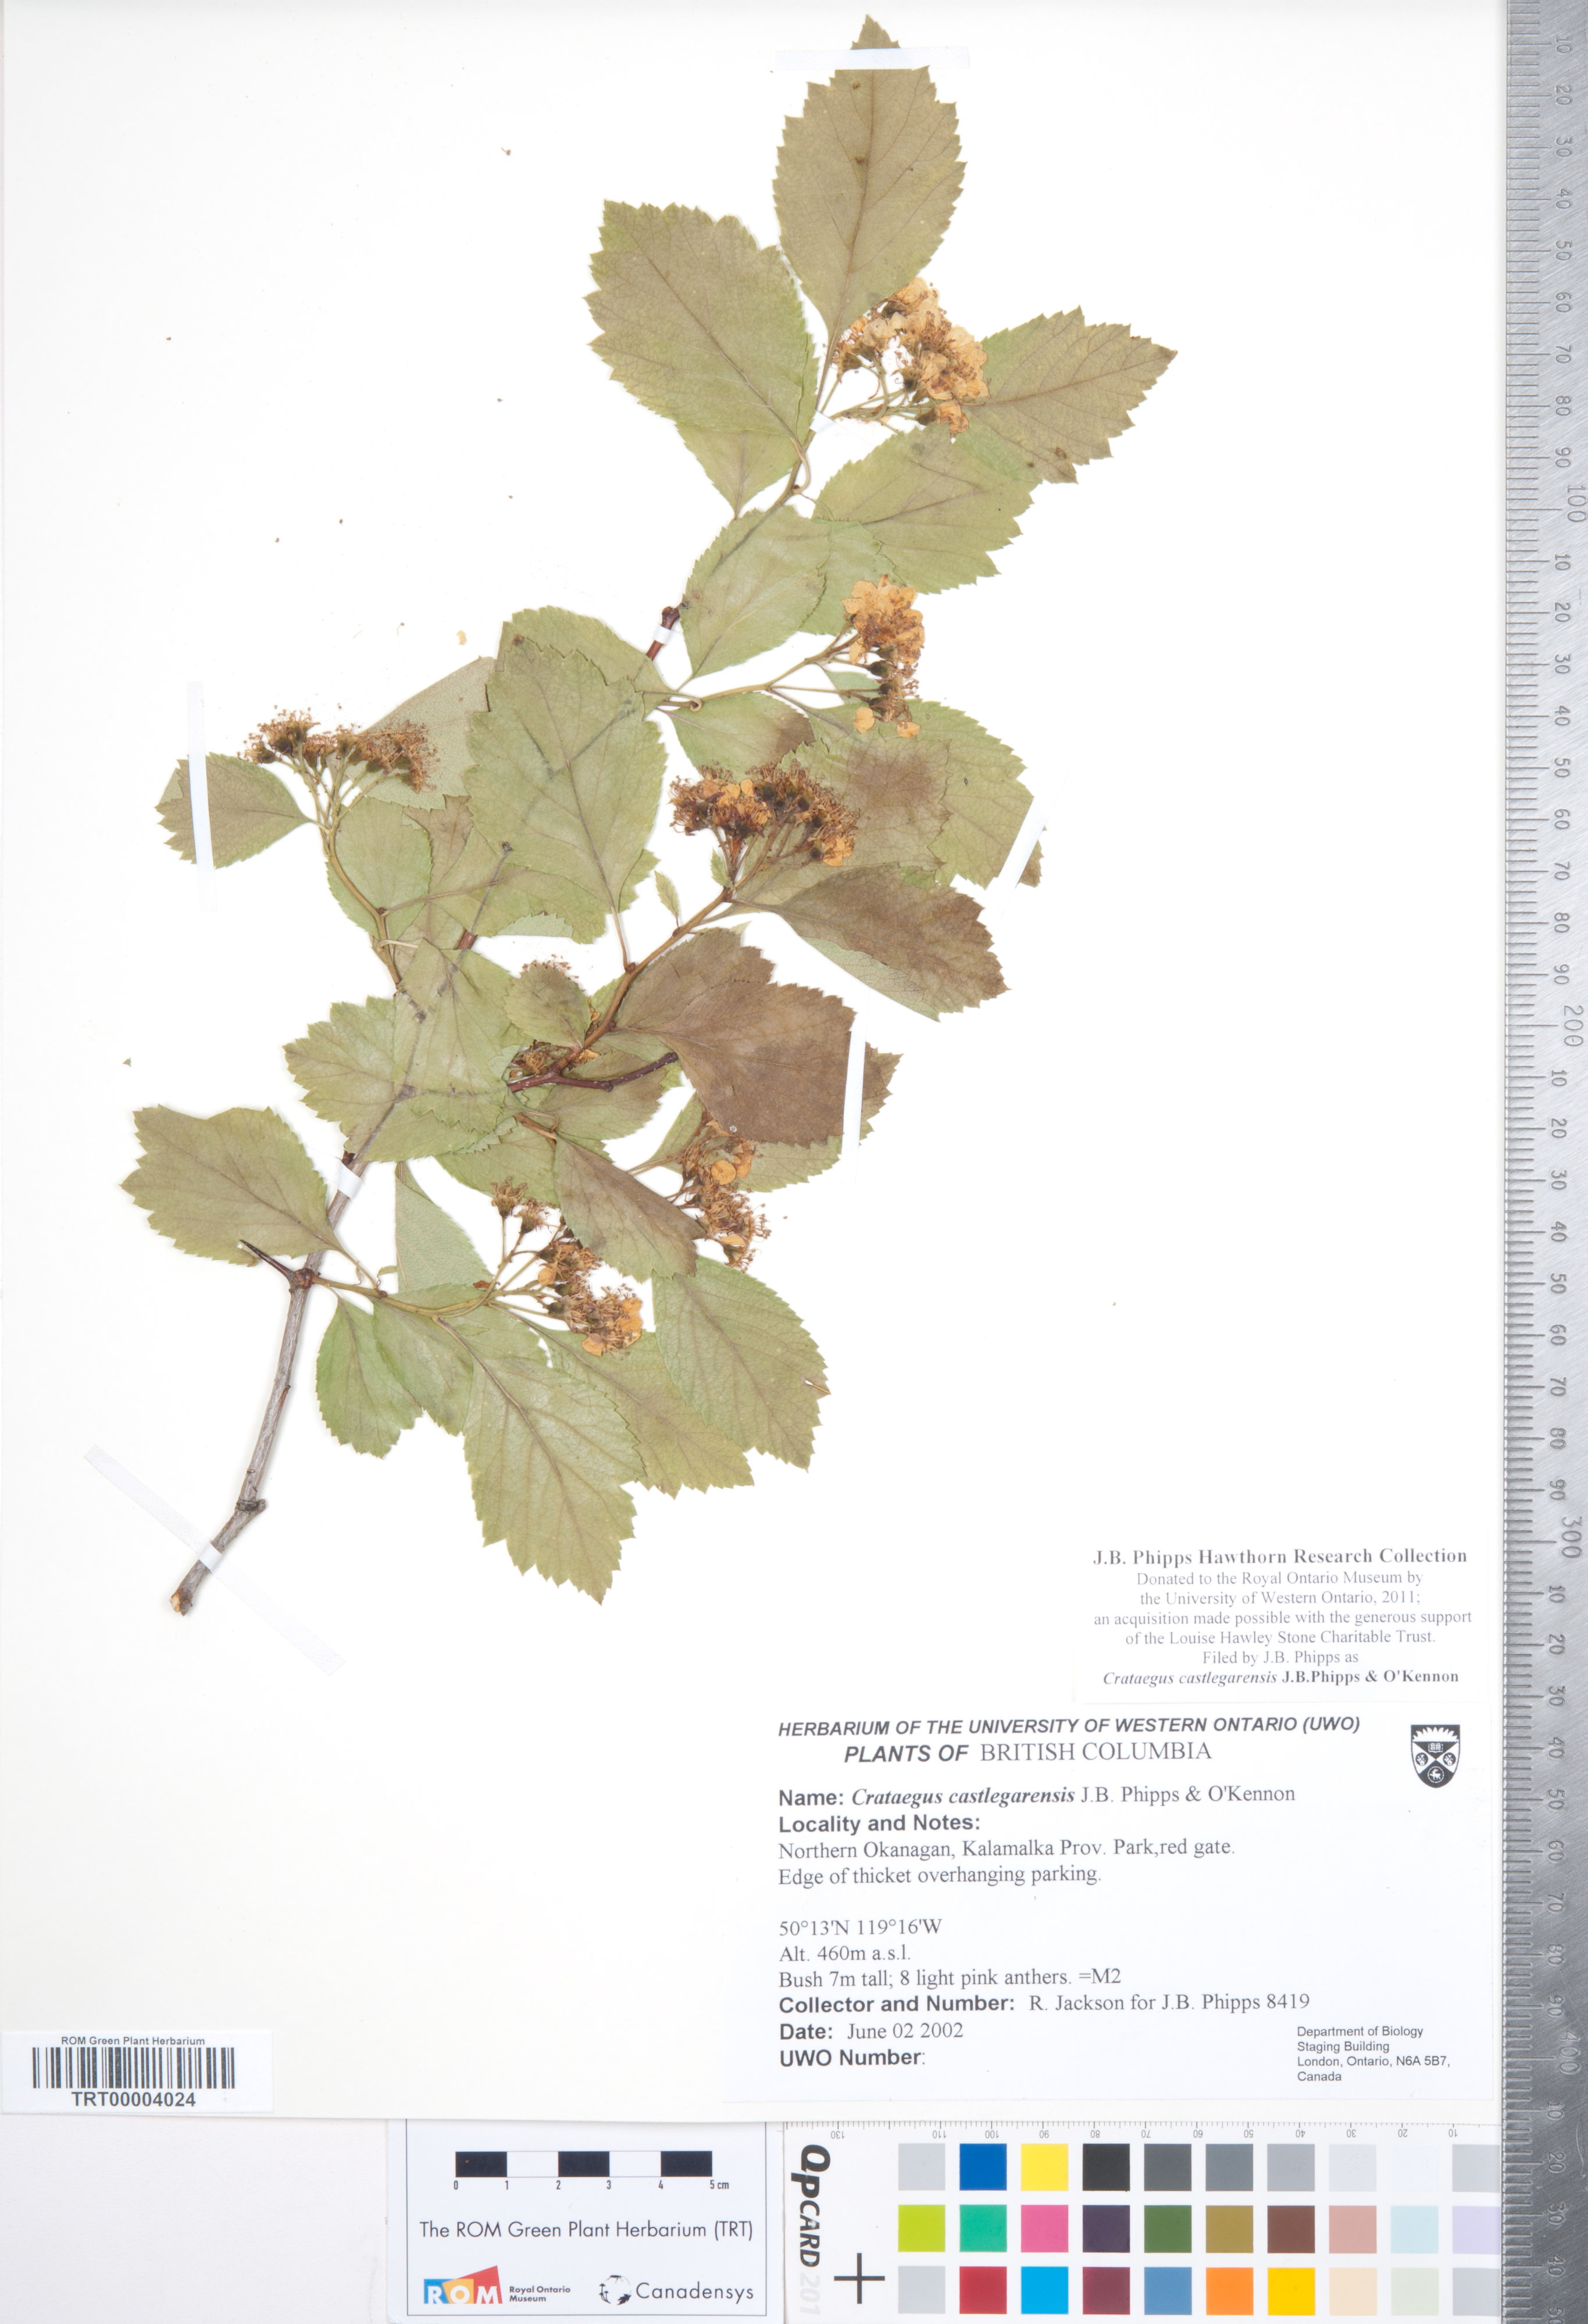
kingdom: Plantae
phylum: Tracheophyta
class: Magnoliopsida
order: Rosales
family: Rosaceae
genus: Crataegus
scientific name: Crataegus castlegarensis
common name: Castlegar hawthorn
